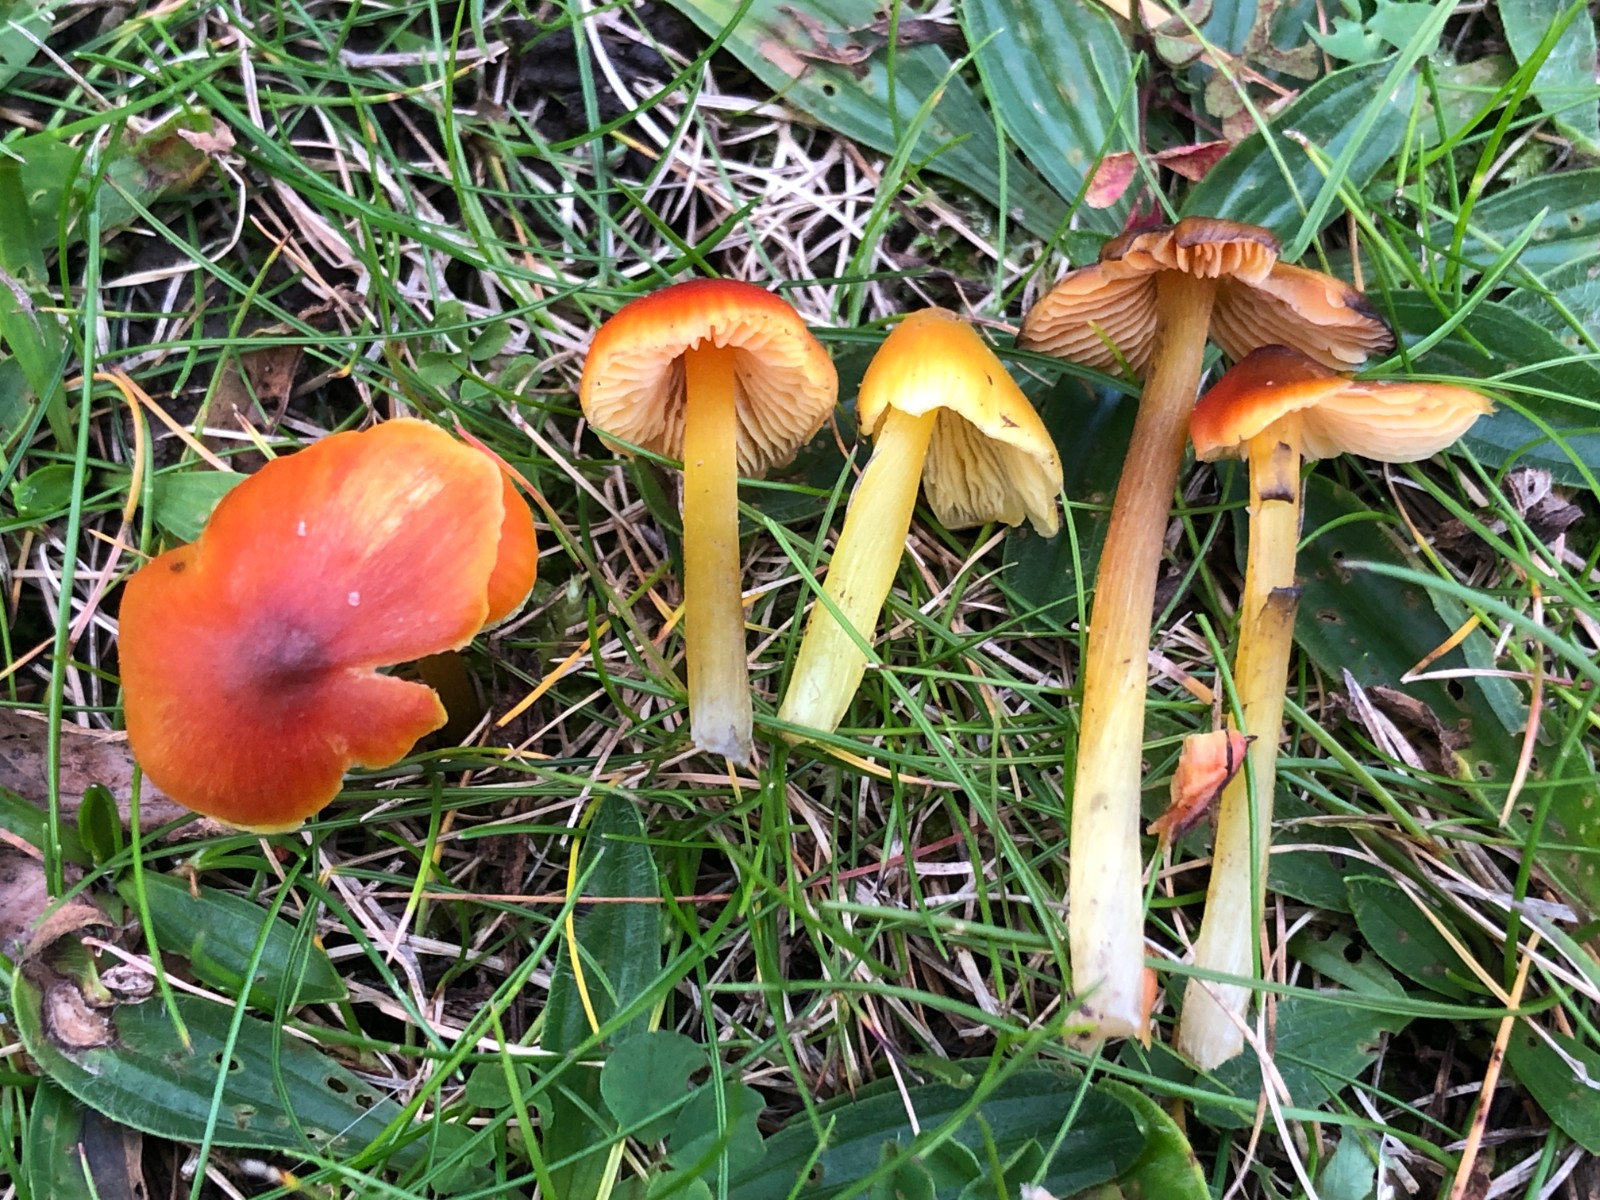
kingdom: Fungi
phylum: Basidiomycota
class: Agaricomycetes
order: Agaricales
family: Hygrophoraceae
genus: Hygrocybe
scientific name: Hygrocybe conica
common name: kegle-vokshat
